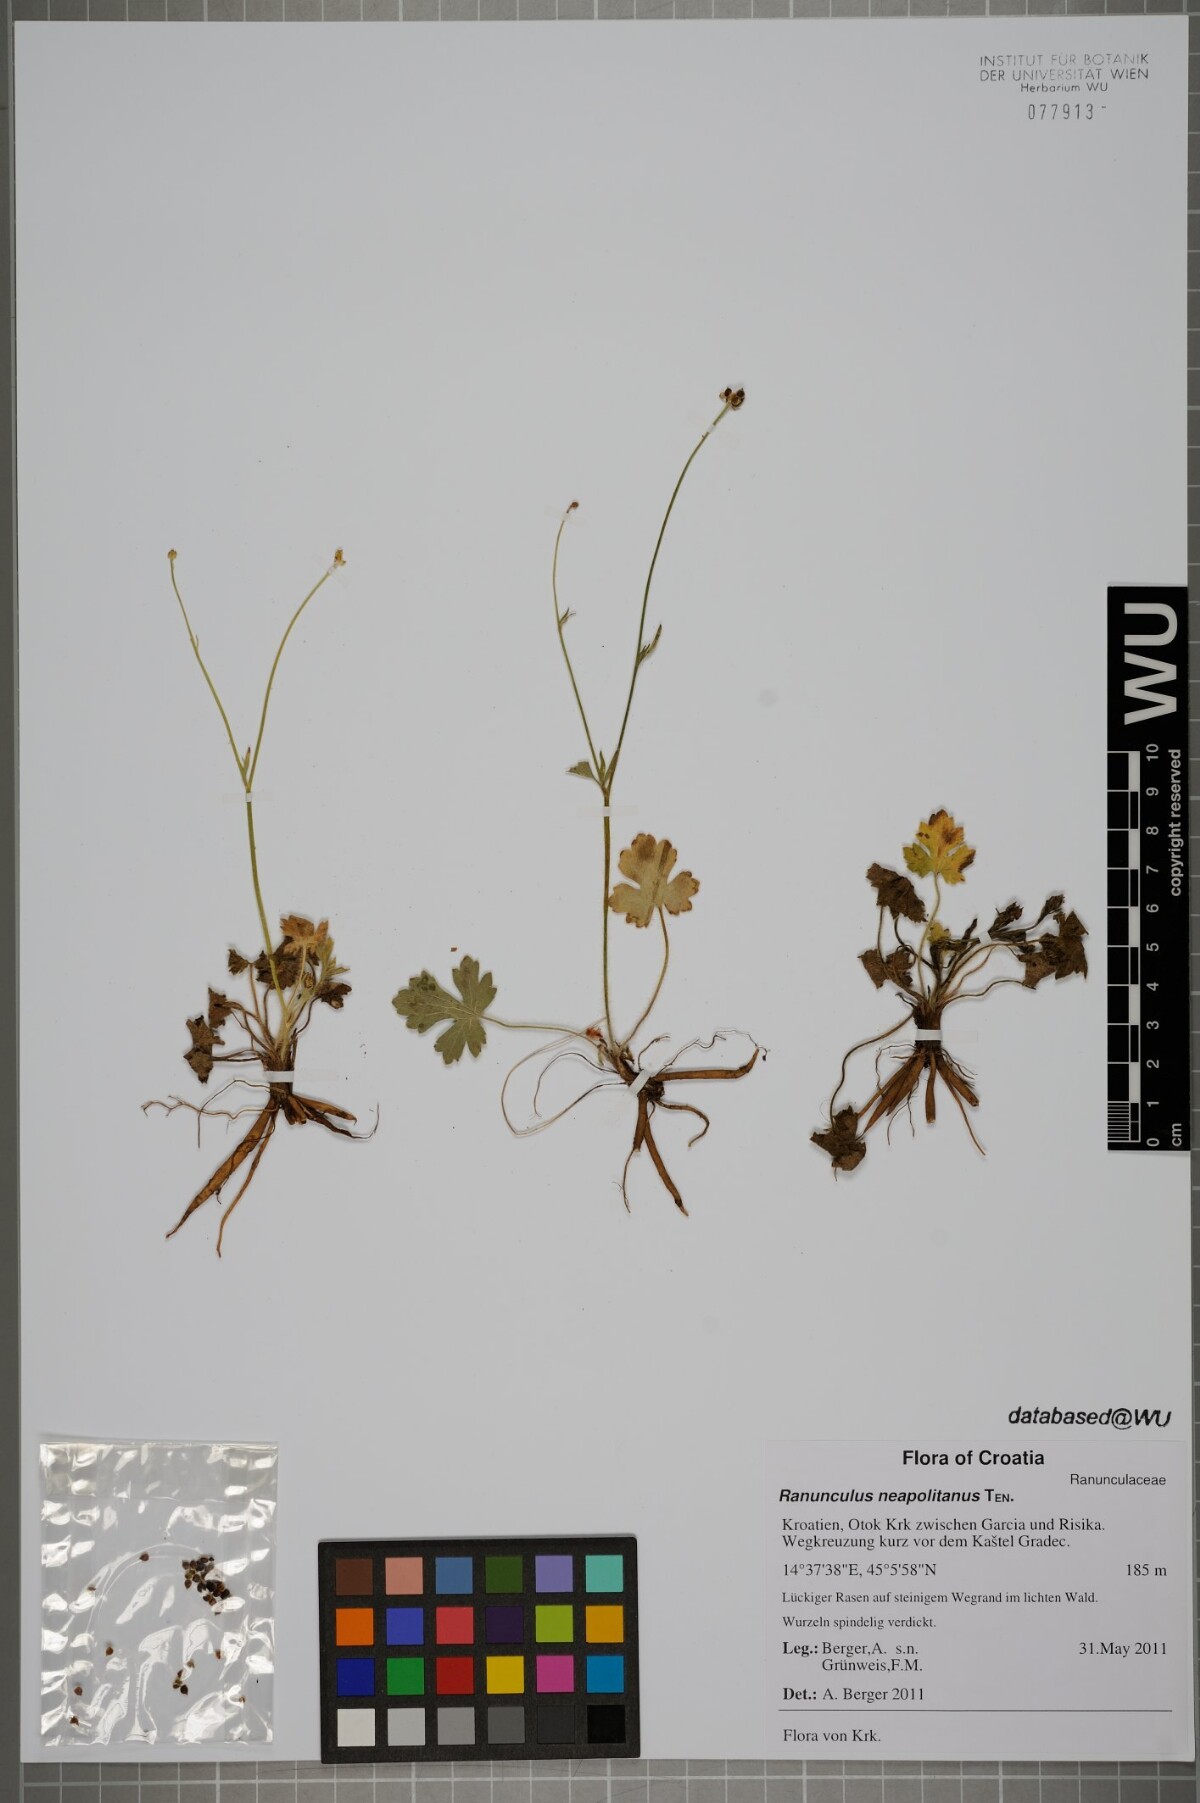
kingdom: Plantae
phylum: Tracheophyta
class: Magnoliopsida
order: Ranunculales
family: Ranunculaceae
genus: Ranunculus
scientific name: Ranunculus neapolitanus
